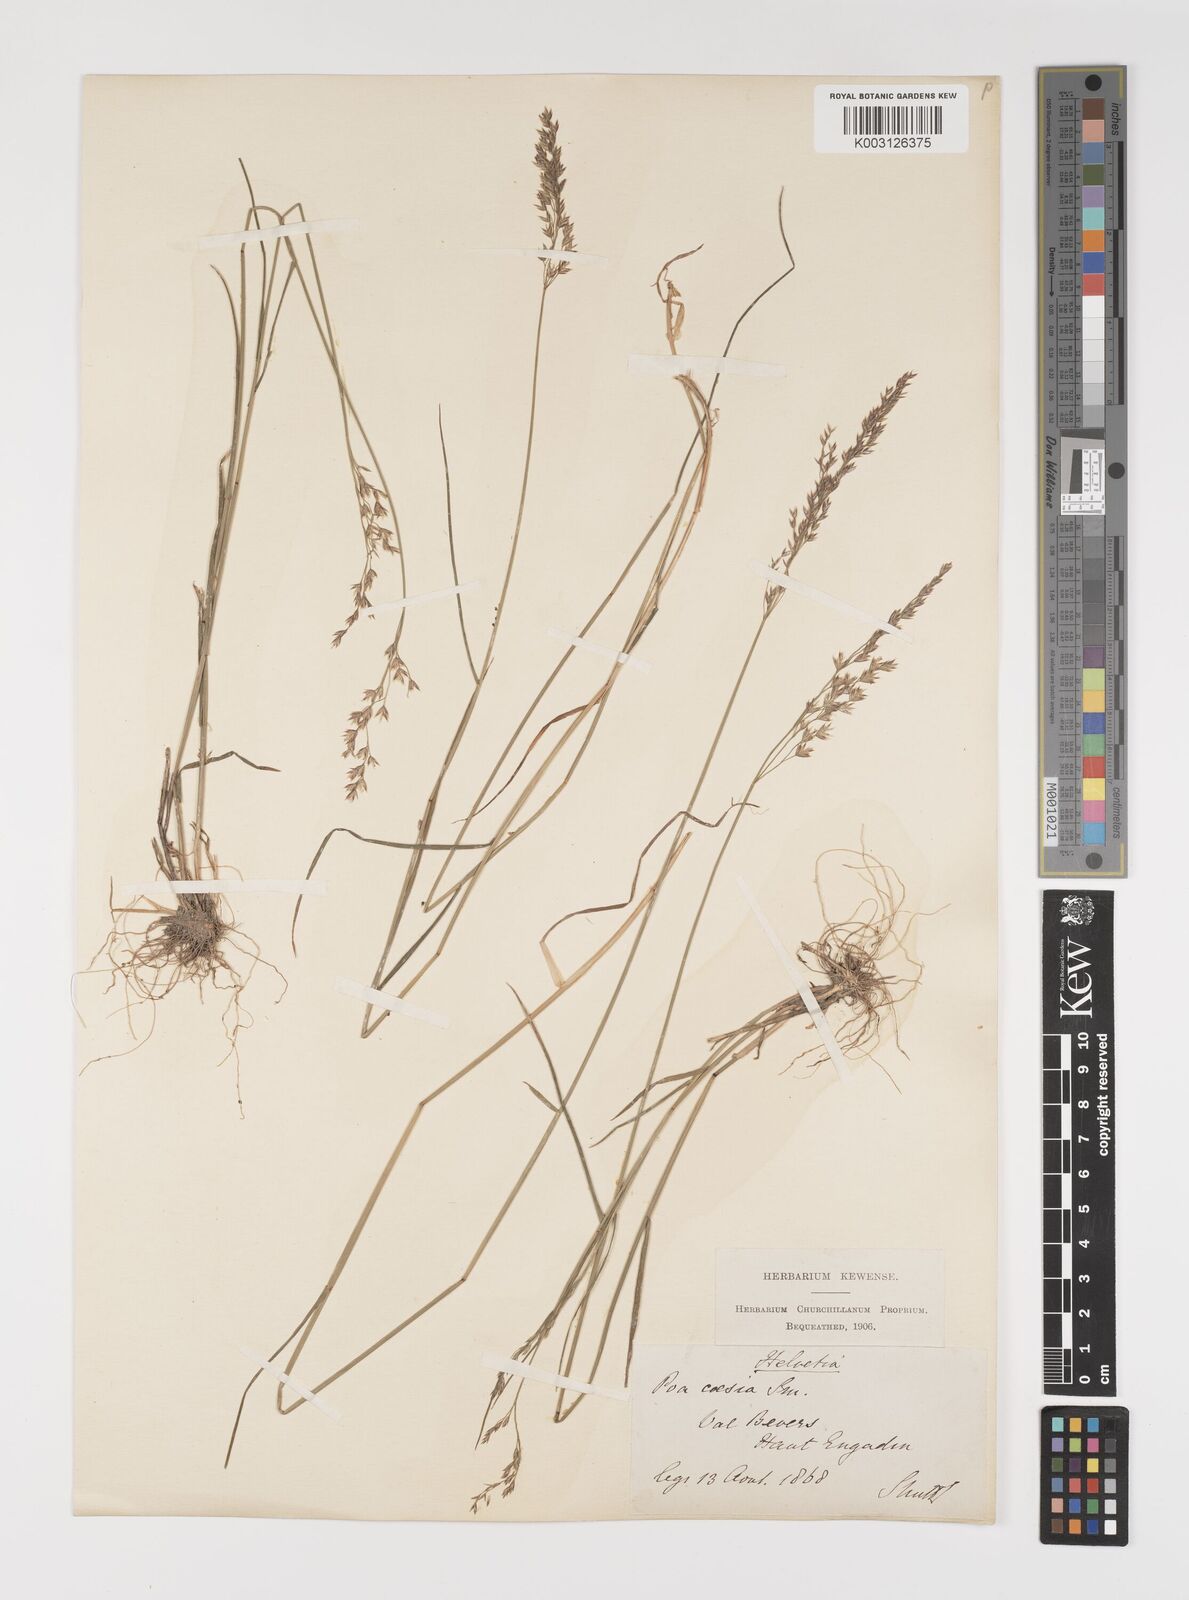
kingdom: Plantae
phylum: Tracheophyta
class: Liliopsida
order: Poales
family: Poaceae
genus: Poa
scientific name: Poa glauca
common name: Glaucous bluegrass
